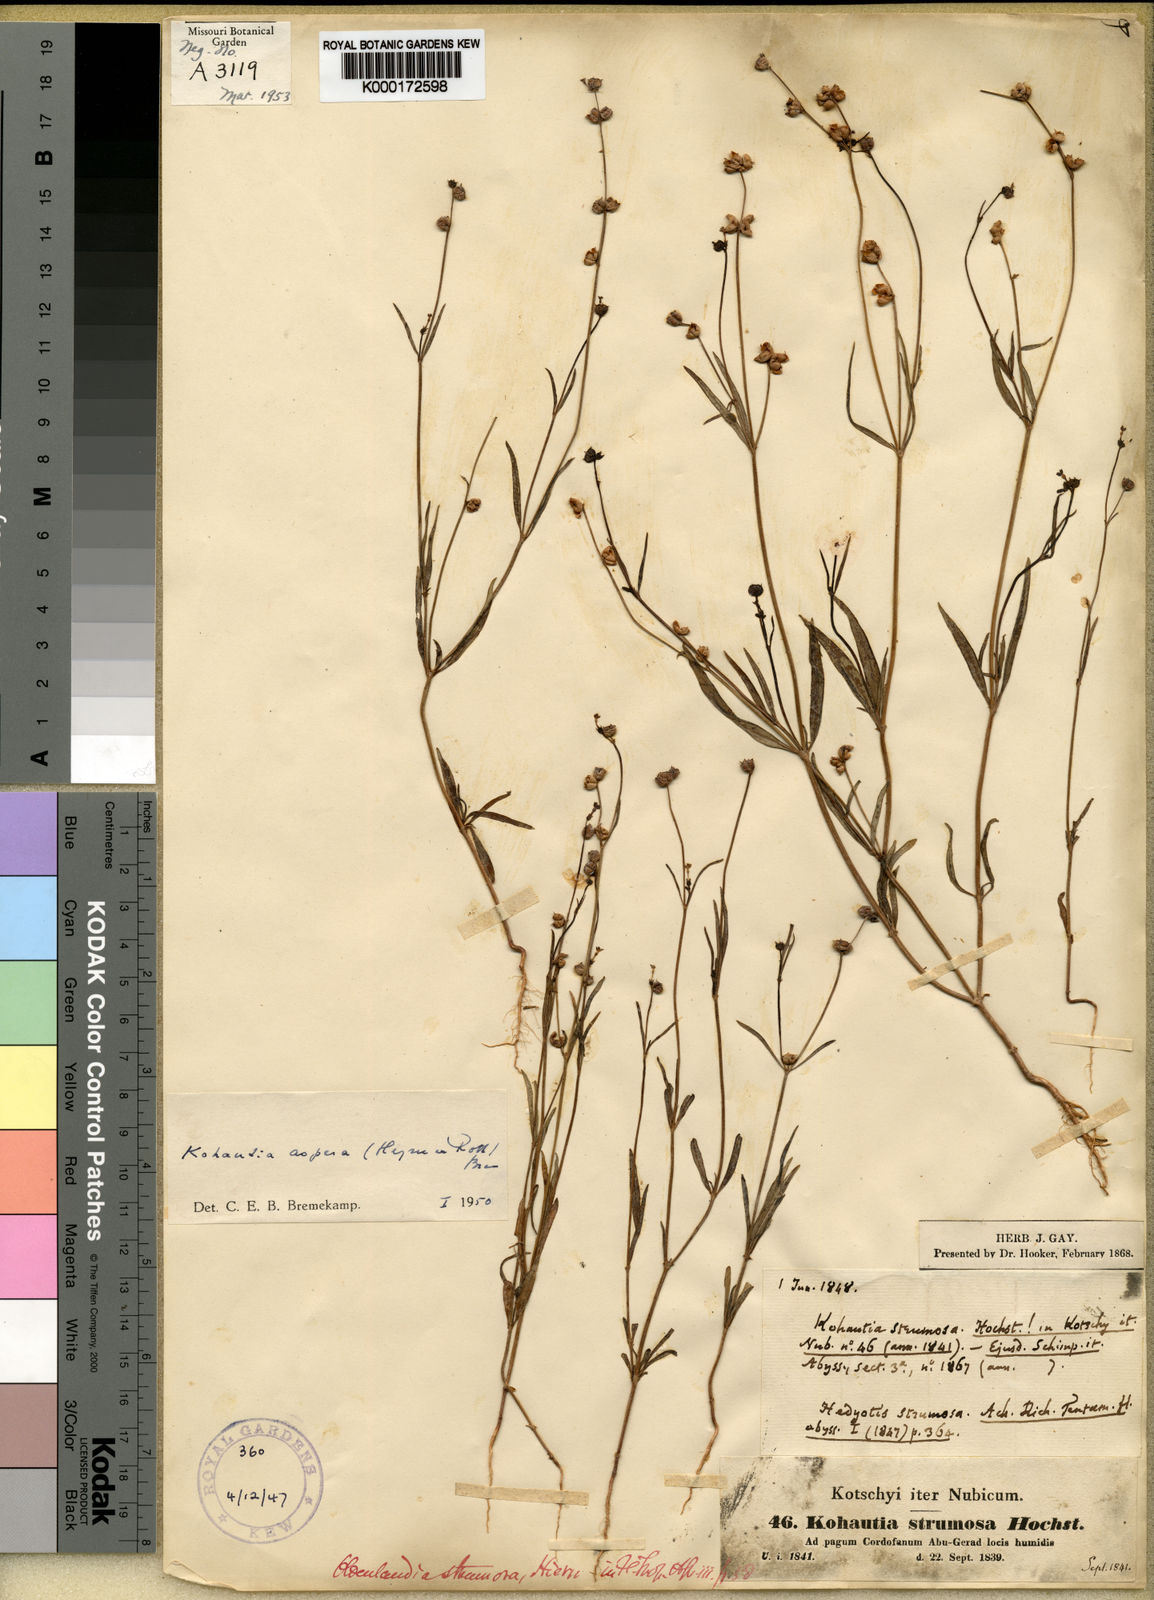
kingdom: Plantae
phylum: Tracheophyta
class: Magnoliopsida
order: Gentianales
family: Rubiaceae
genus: Kohautia
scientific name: Kohautia aspera
